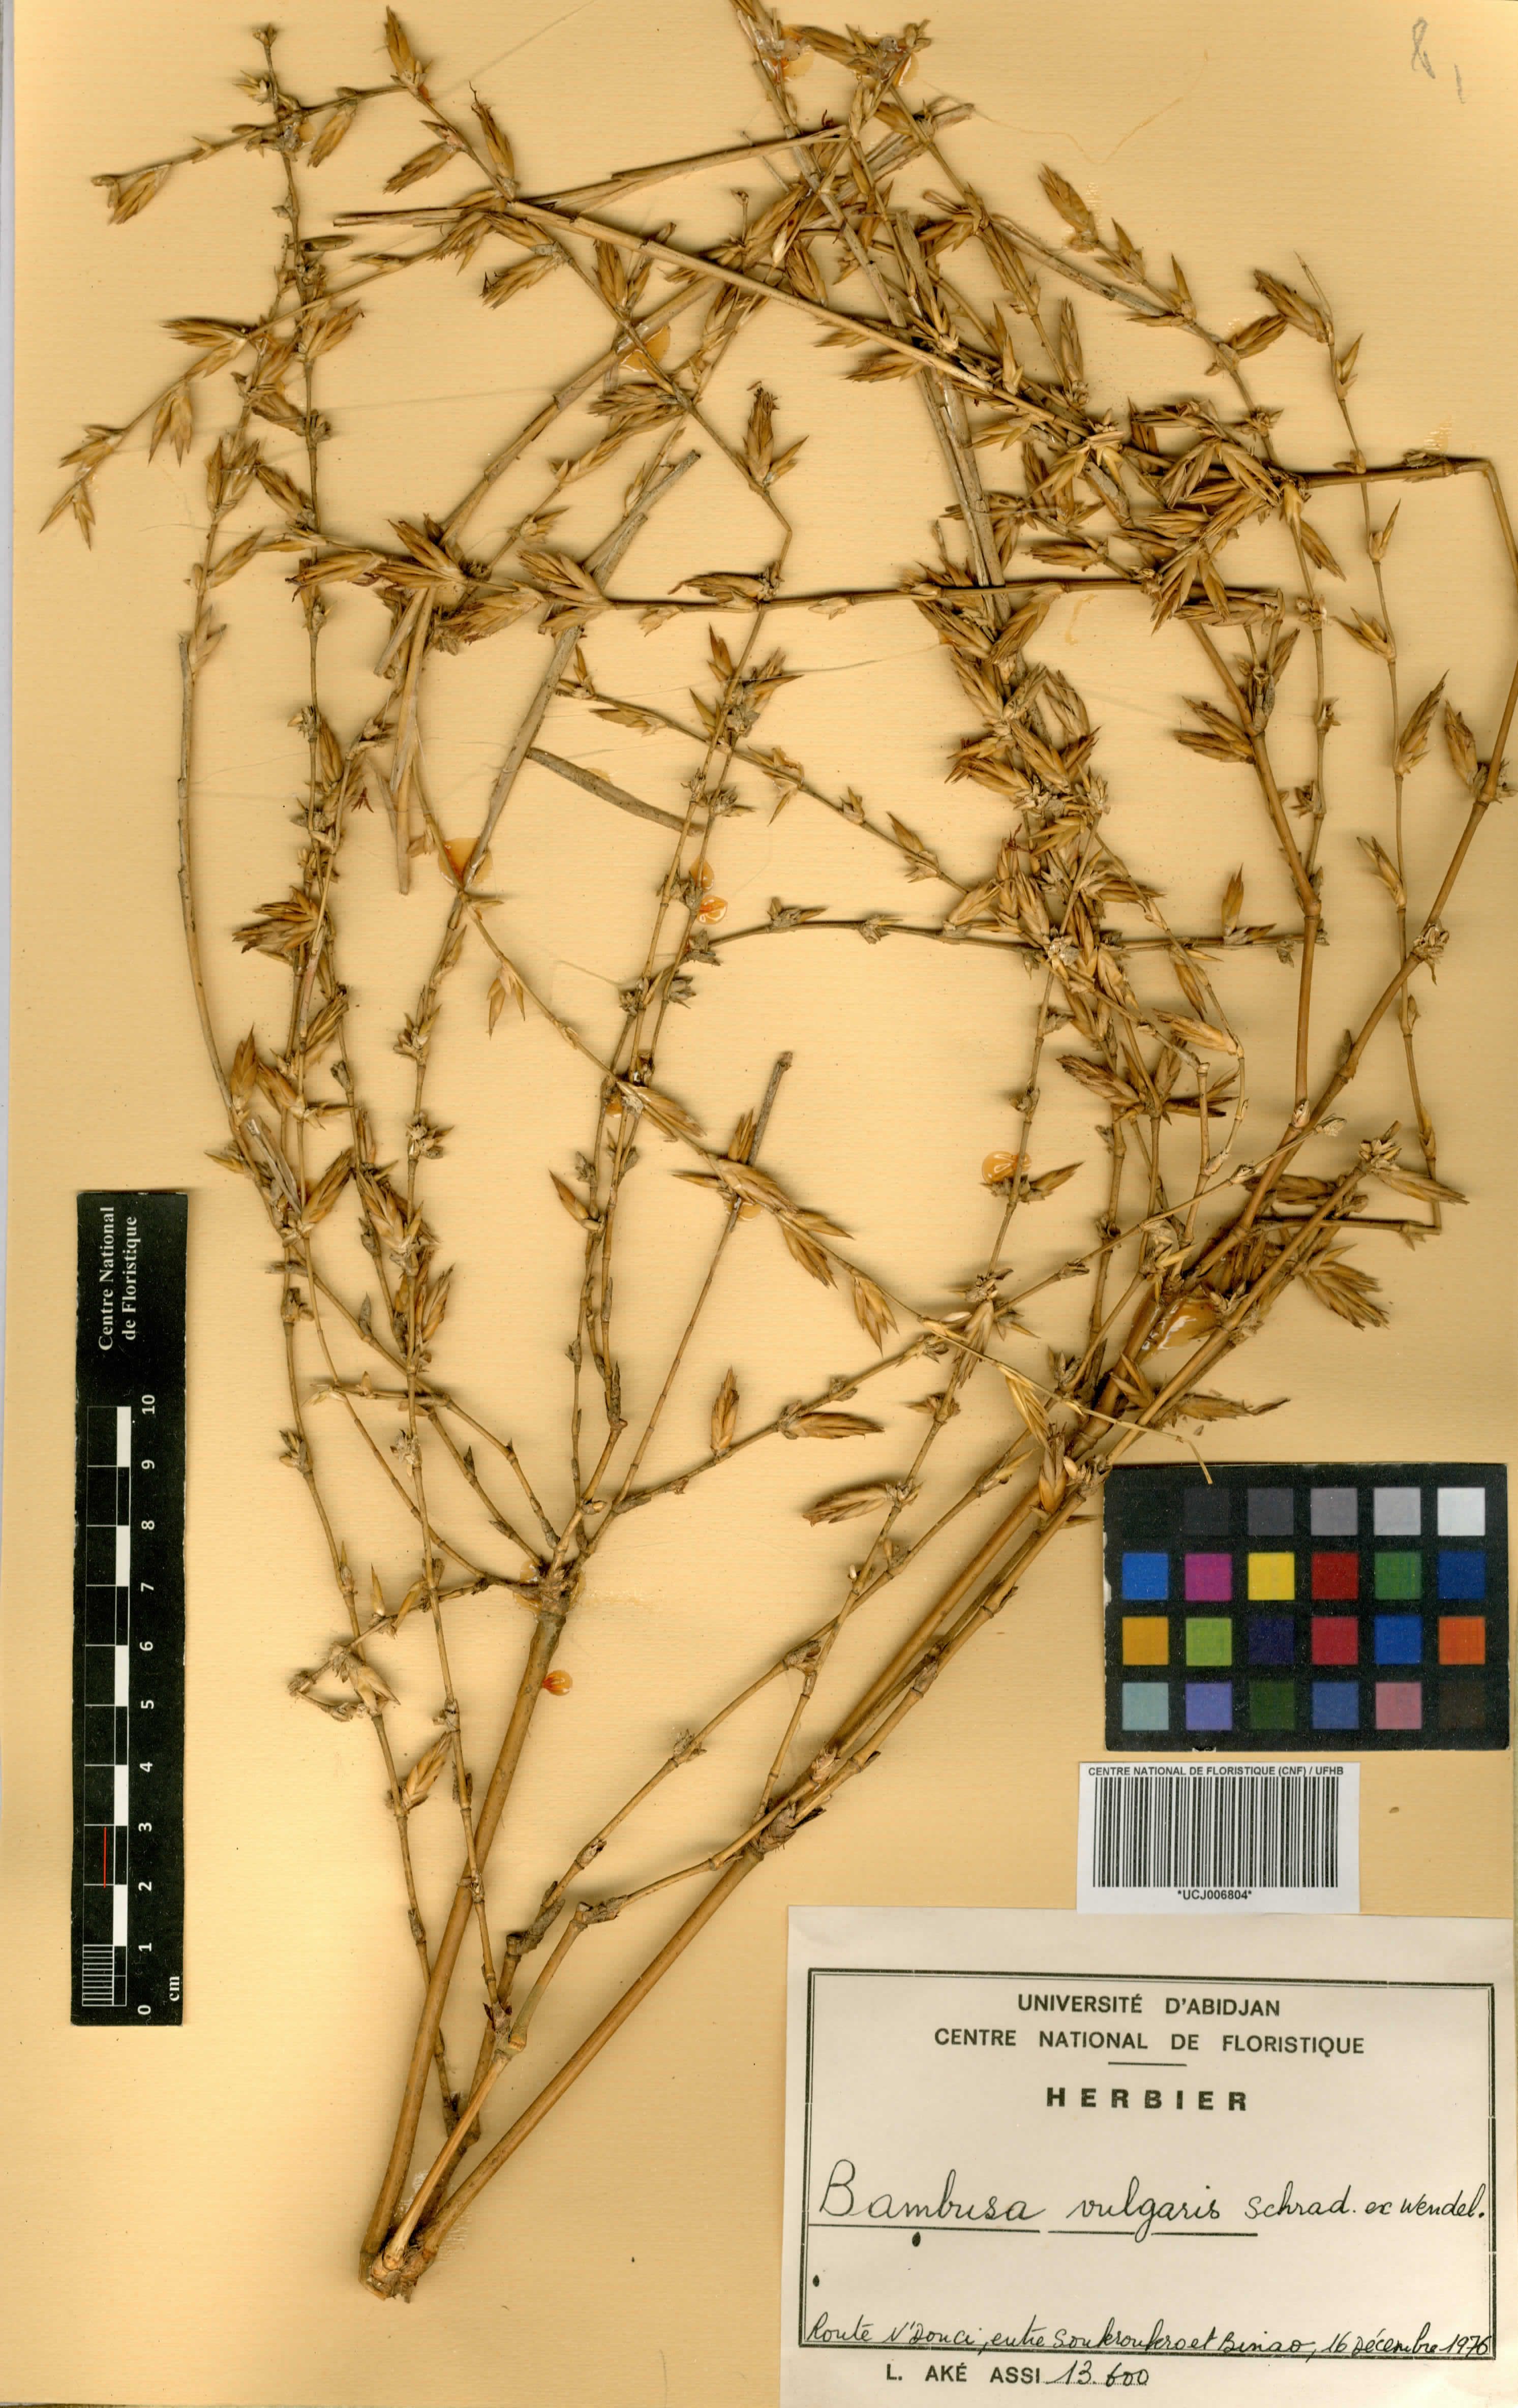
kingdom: Plantae
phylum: Tracheophyta
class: Liliopsida
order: Poales
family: Poaceae
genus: Bambusa
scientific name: Bambusa vulgaris
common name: Common bamboo
